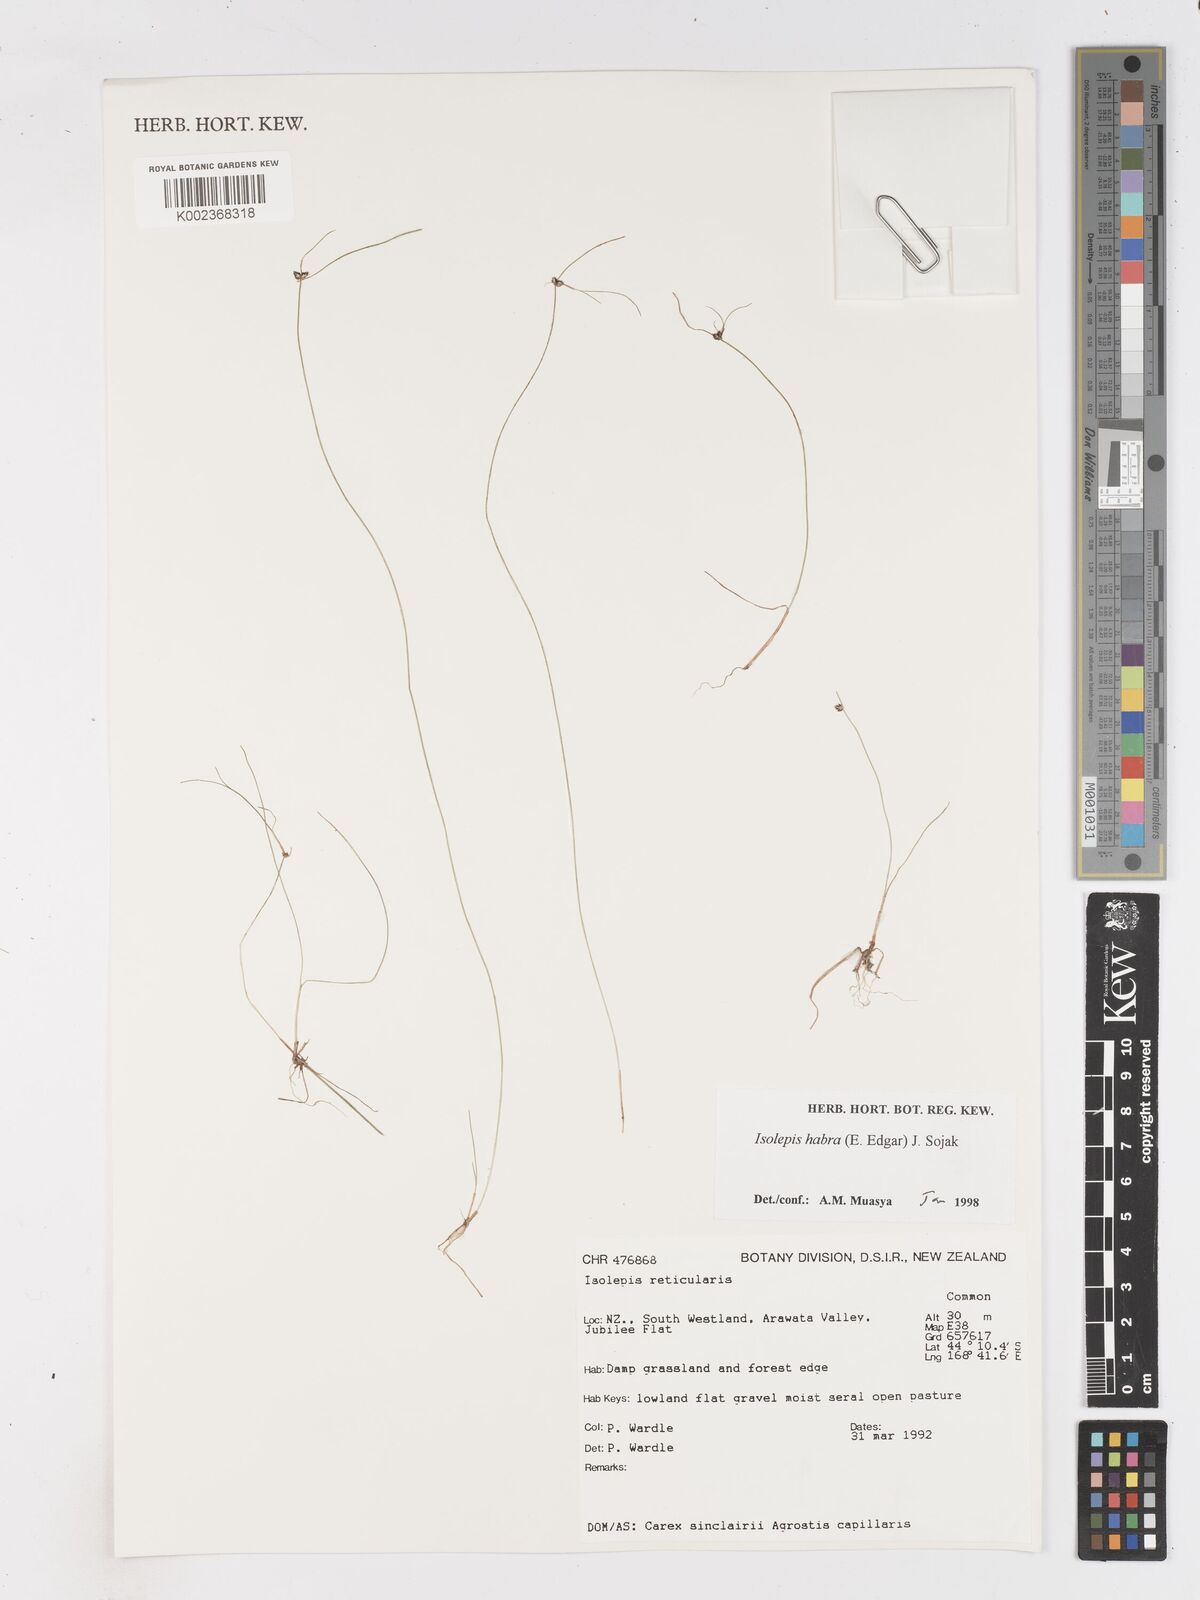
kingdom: Plantae
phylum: Tracheophyta
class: Liliopsida
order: Poales
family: Cyperaceae
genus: Isolepis
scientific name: Isolepis habra
